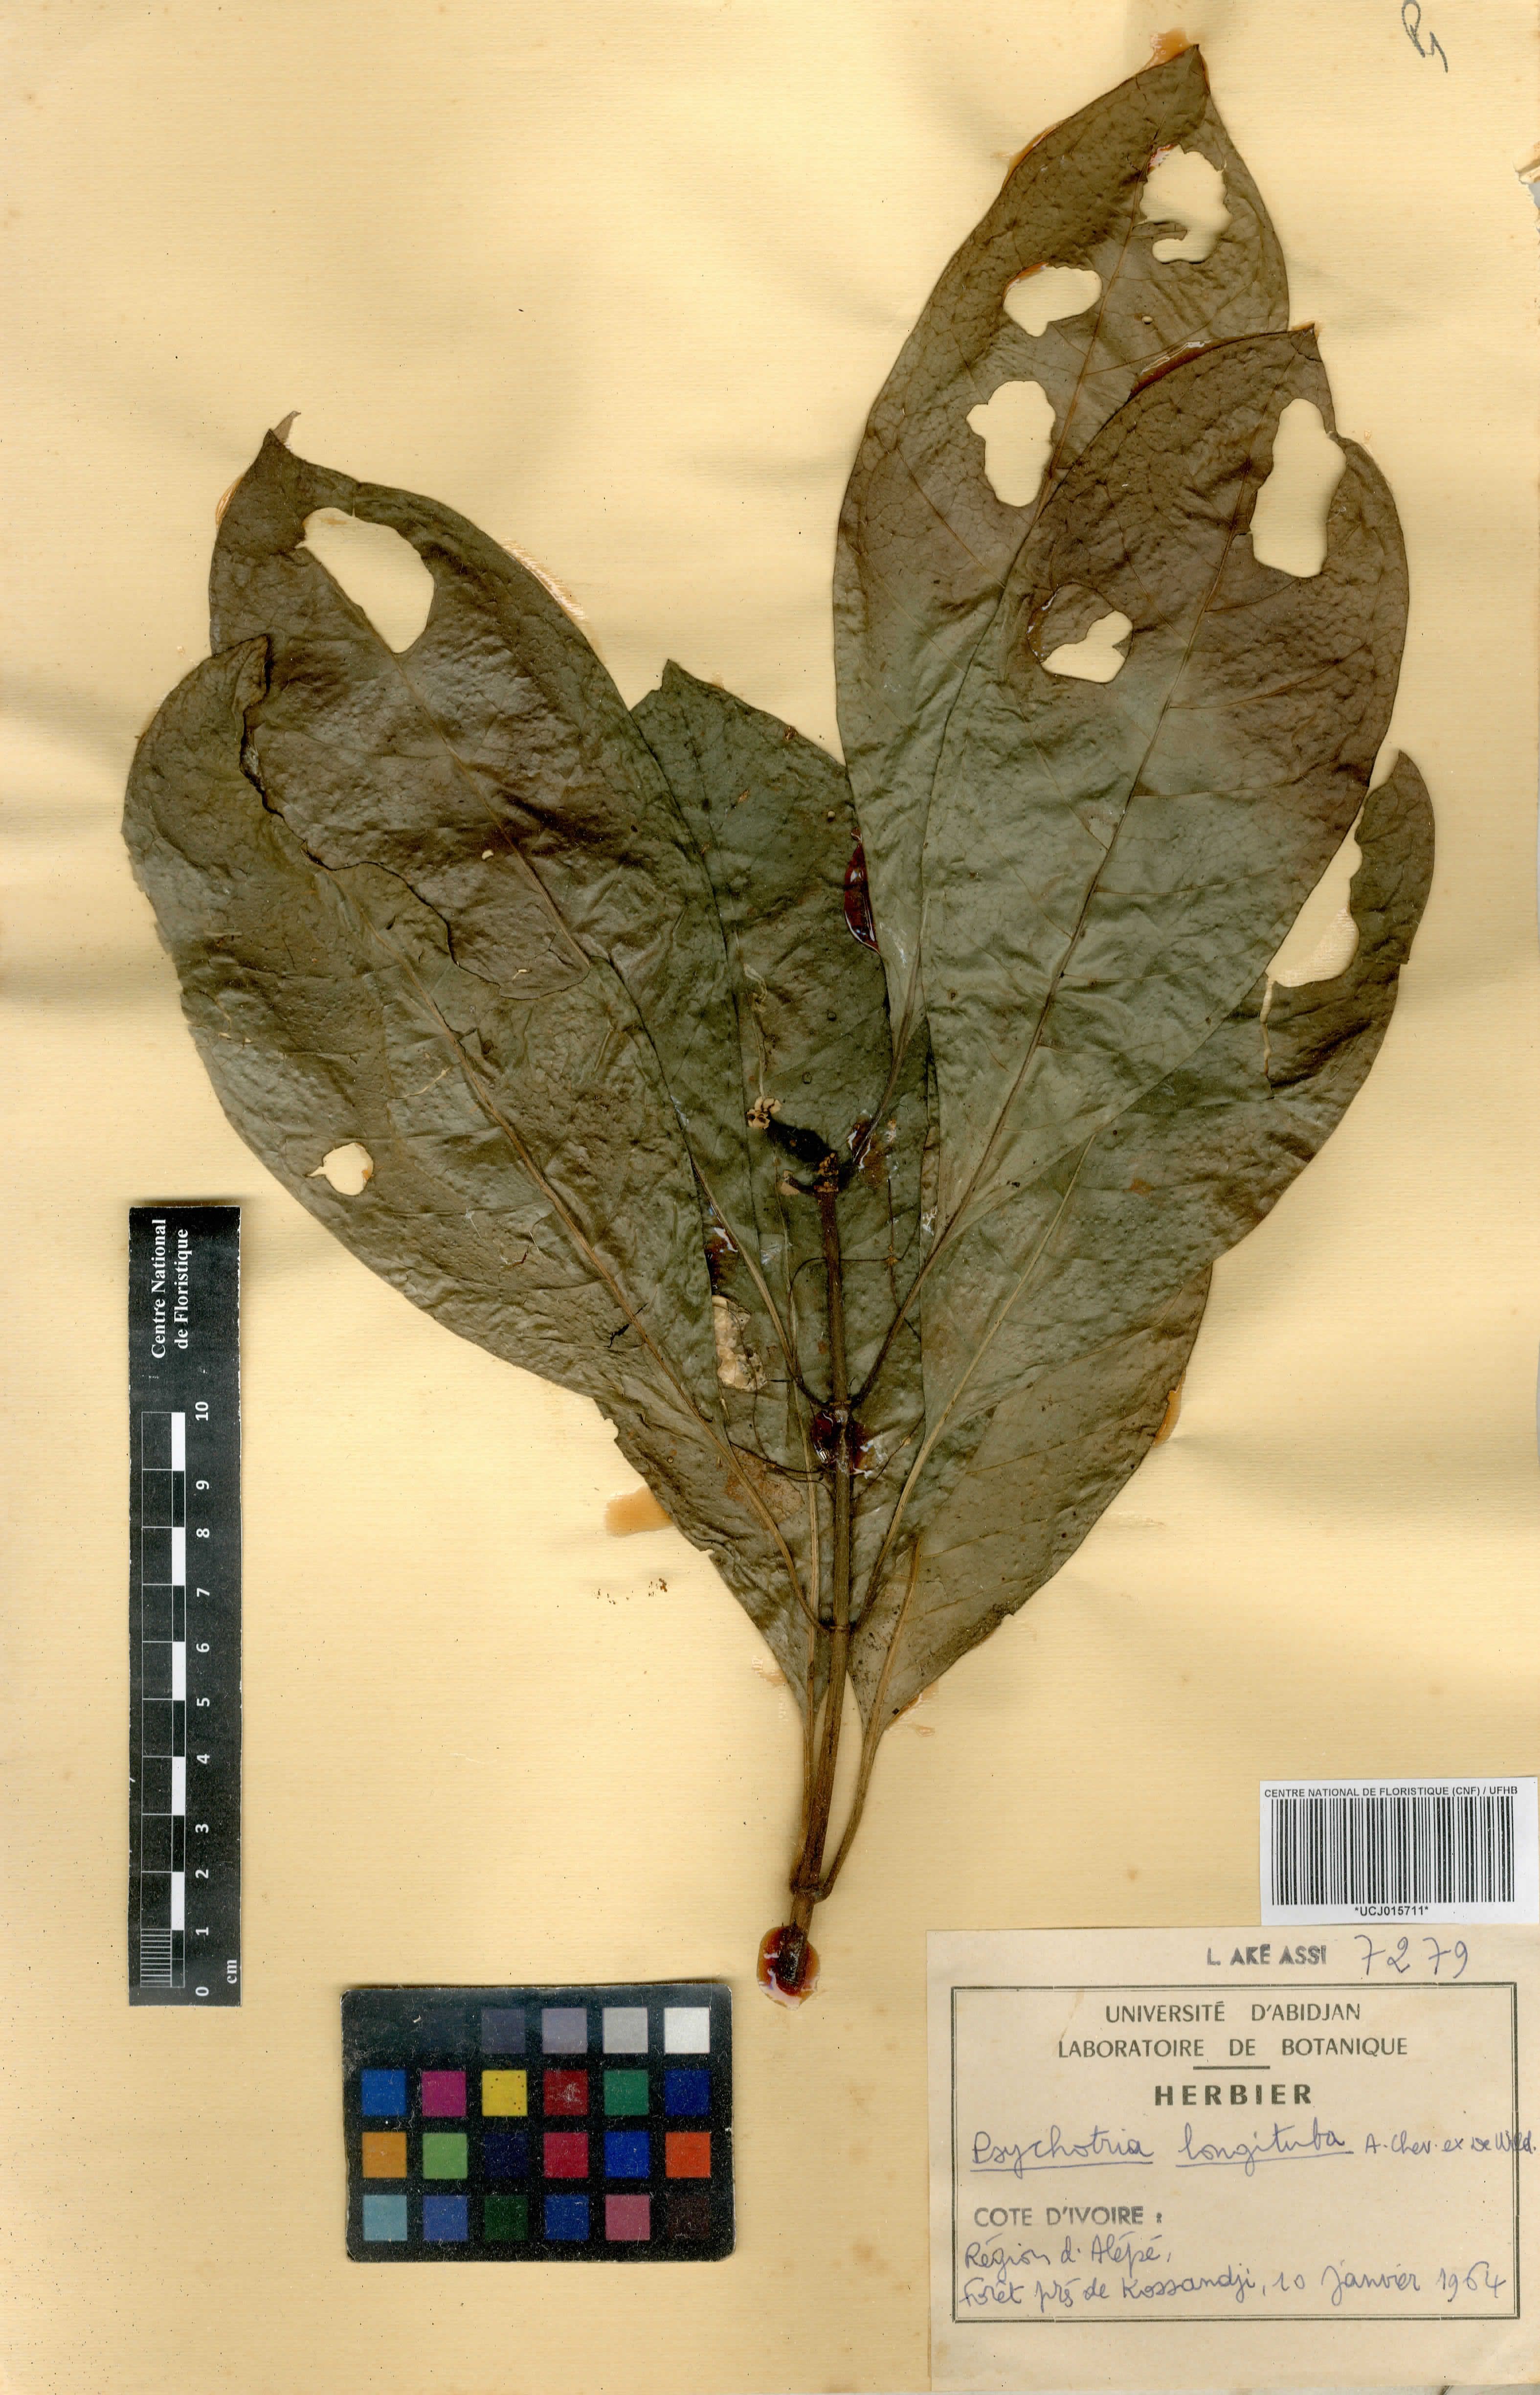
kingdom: Plantae
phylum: Tracheophyta
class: Magnoliopsida
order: Gentianales
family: Rubiaceae
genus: Psychotria
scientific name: Psychotria longituba
